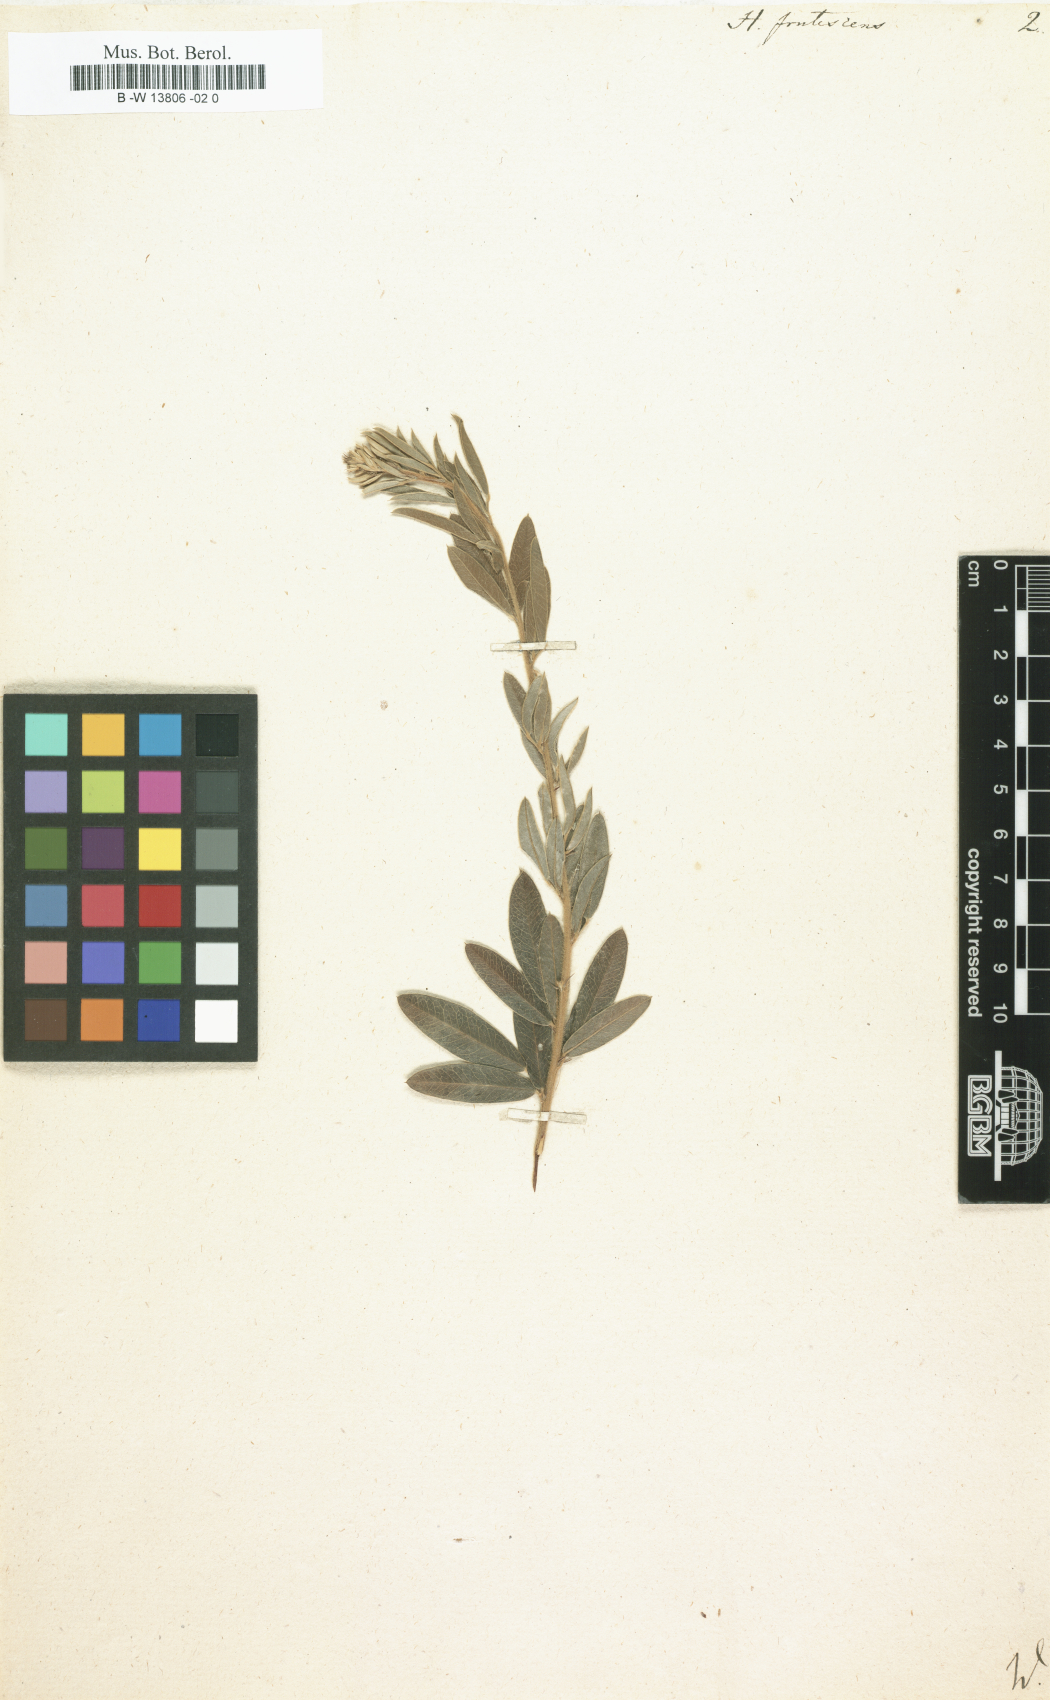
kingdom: Plantae
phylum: Tracheophyta
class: Magnoliopsida
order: Fabales
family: Fabaceae
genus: Lespedeza
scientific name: Lespedeza violacea
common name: Wand bush-clover
